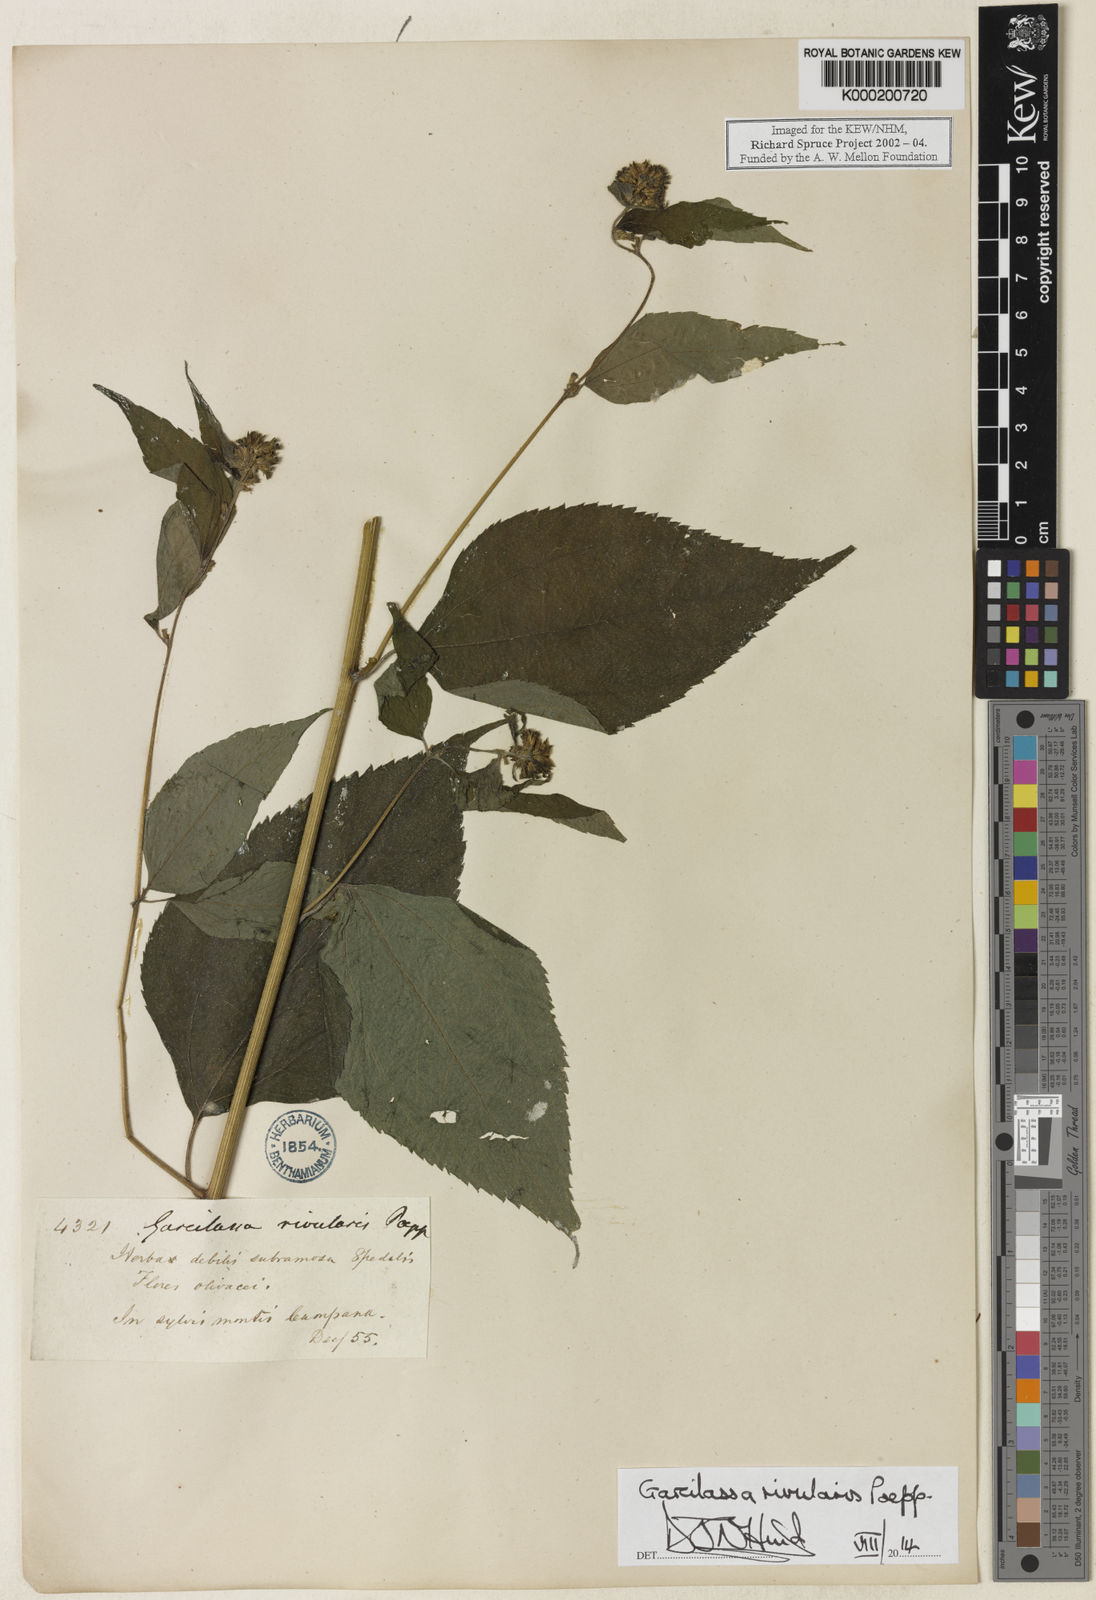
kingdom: Plantae
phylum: Tracheophyta
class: Magnoliopsida
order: Asterales
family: Asteraceae
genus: Hymenostephium
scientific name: Hymenostephium rivularis
